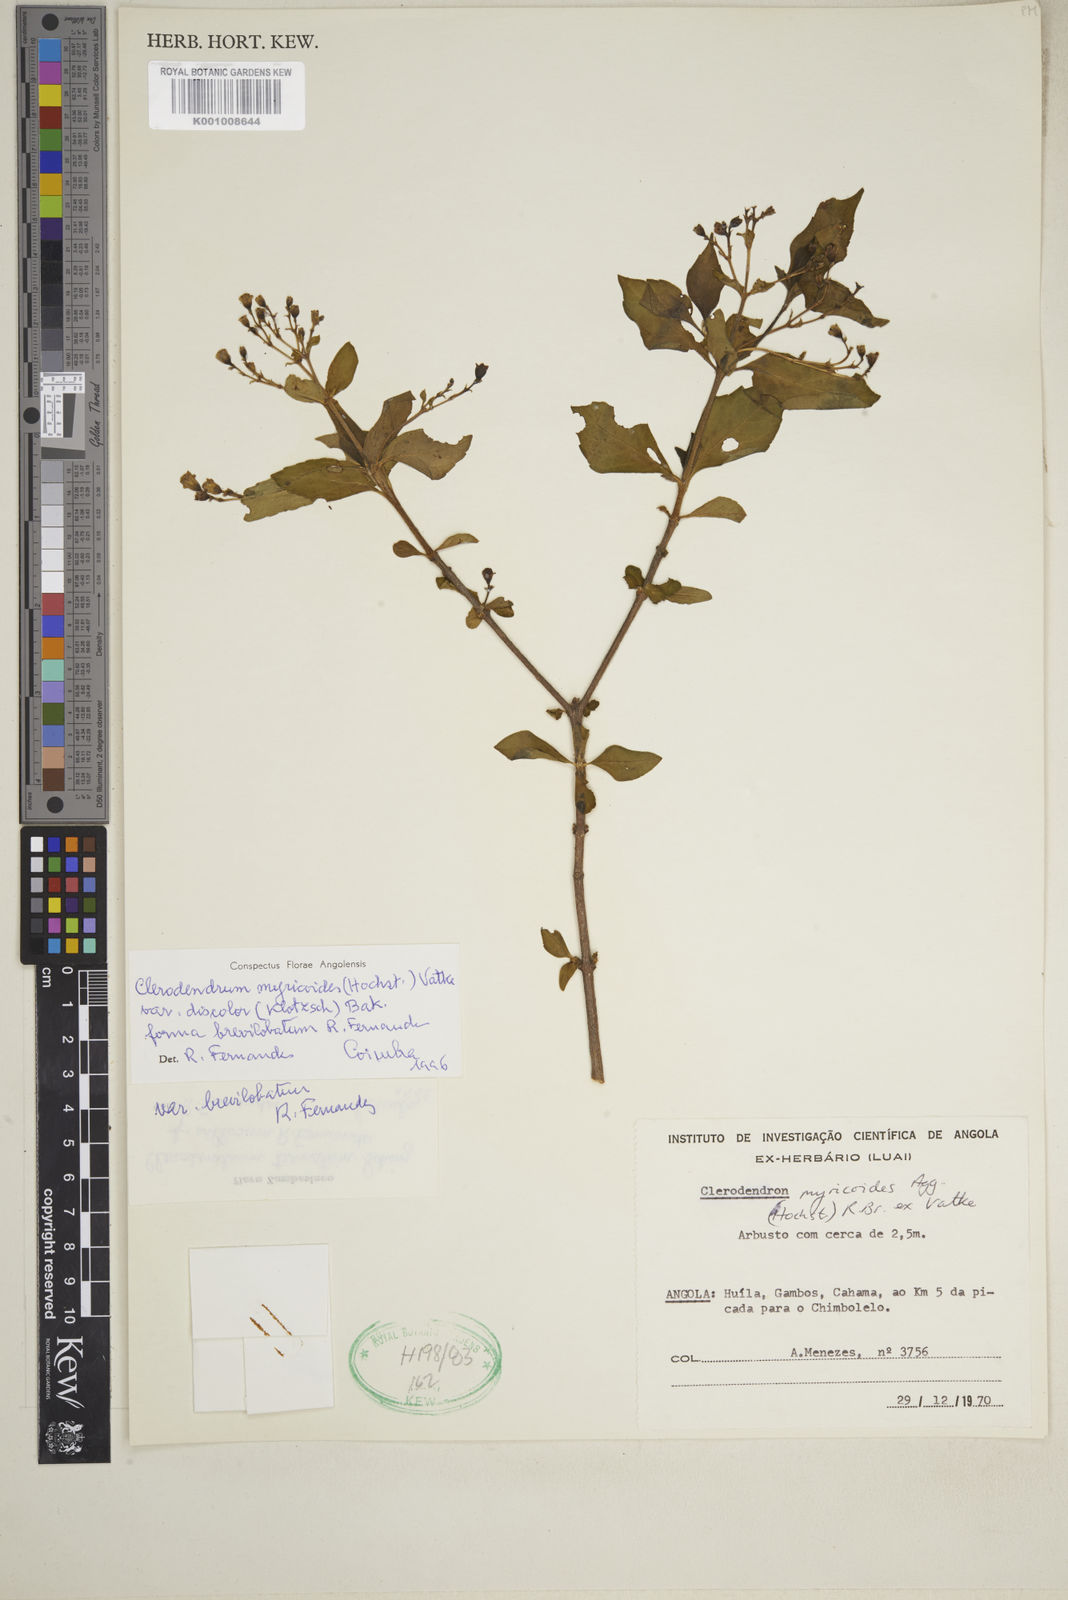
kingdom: Plantae
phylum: Tracheophyta
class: Magnoliopsida
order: Lamiales
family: Lamiaceae
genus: Rotheca
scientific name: Rotheca myricoides
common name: Cats-whiskers
